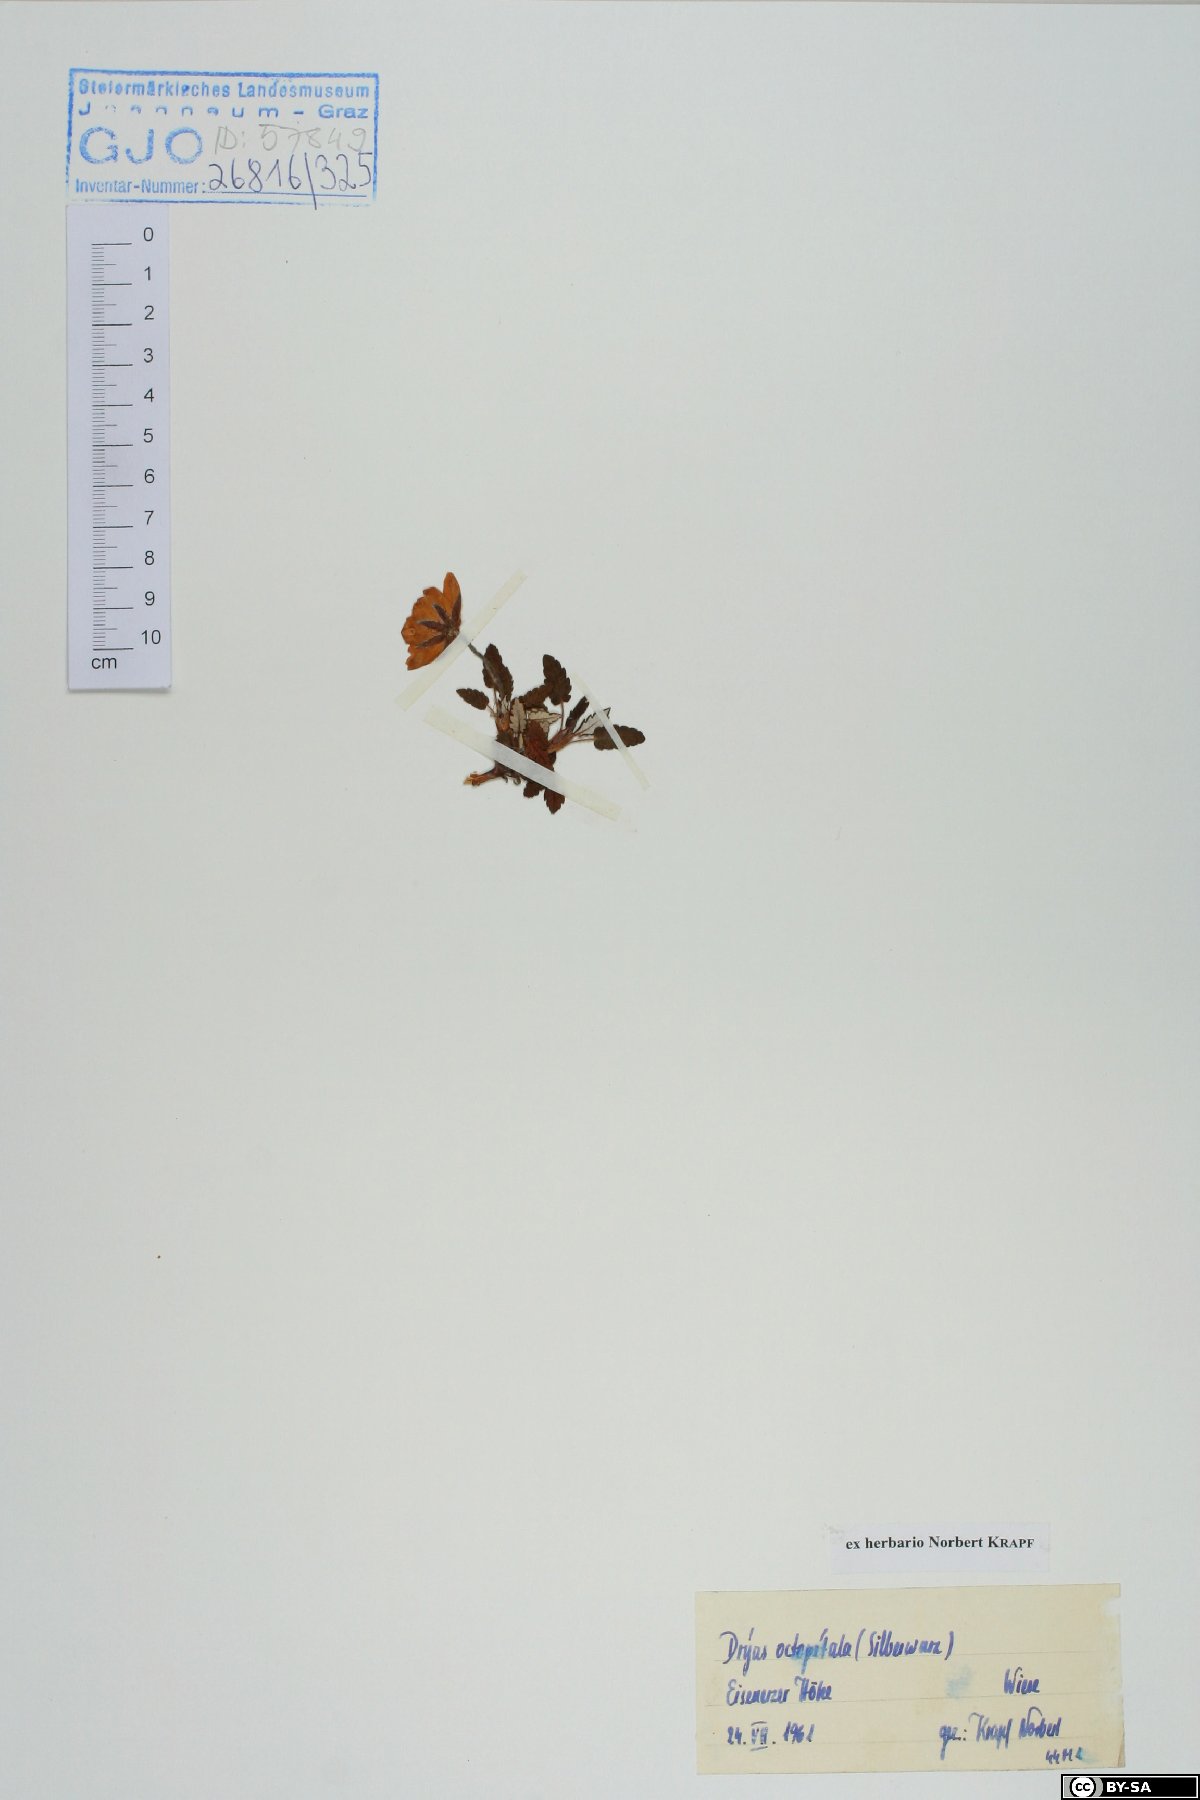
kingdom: Plantae
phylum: Tracheophyta
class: Magnoliopsida
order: Rosales
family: Rosaceae
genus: Dryas
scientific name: Dryas octopetala
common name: Eight-petal mountain-avens
